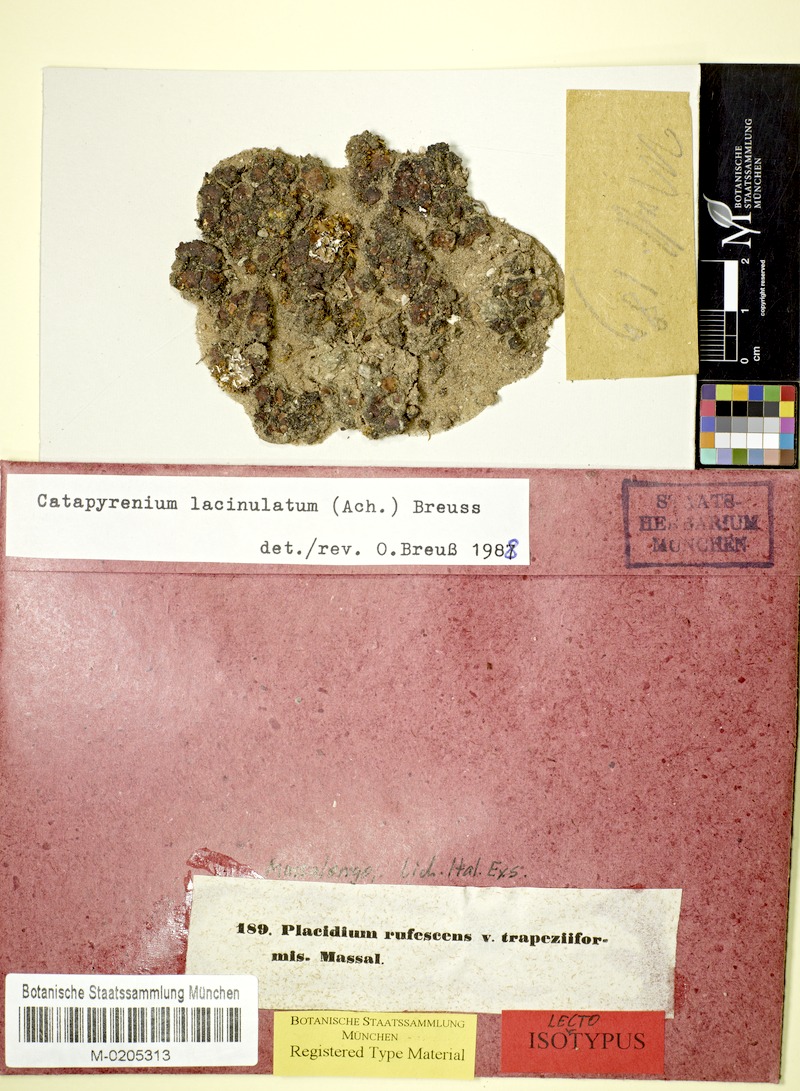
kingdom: Fungi
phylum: Ascomycota
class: Eurotiomycetes
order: Verrucariales
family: Verrucariaceae
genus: Clavascidium
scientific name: Clavascidium lacinulatum
